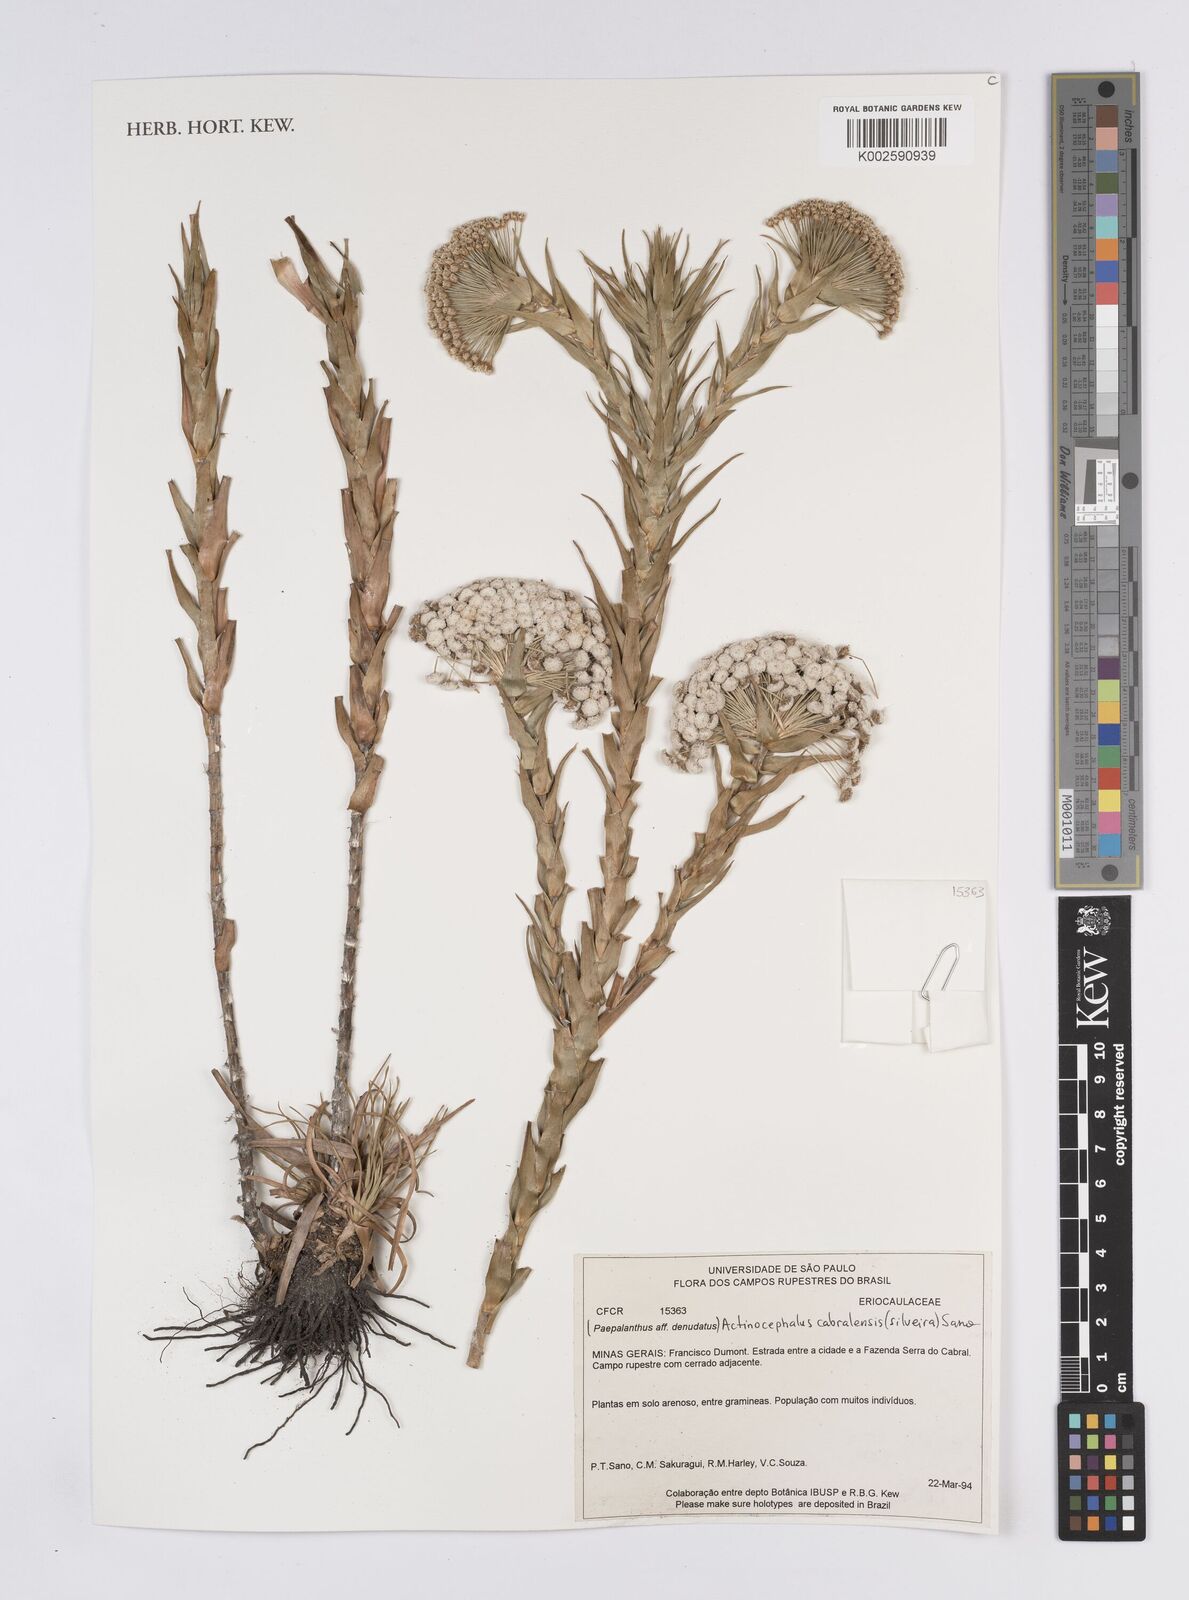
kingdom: Plantae
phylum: Tracheophyta
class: Liliopsida
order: Poales
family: Eriocaulaceae
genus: Paepalanthus
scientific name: Paepalanthus cabralensis
